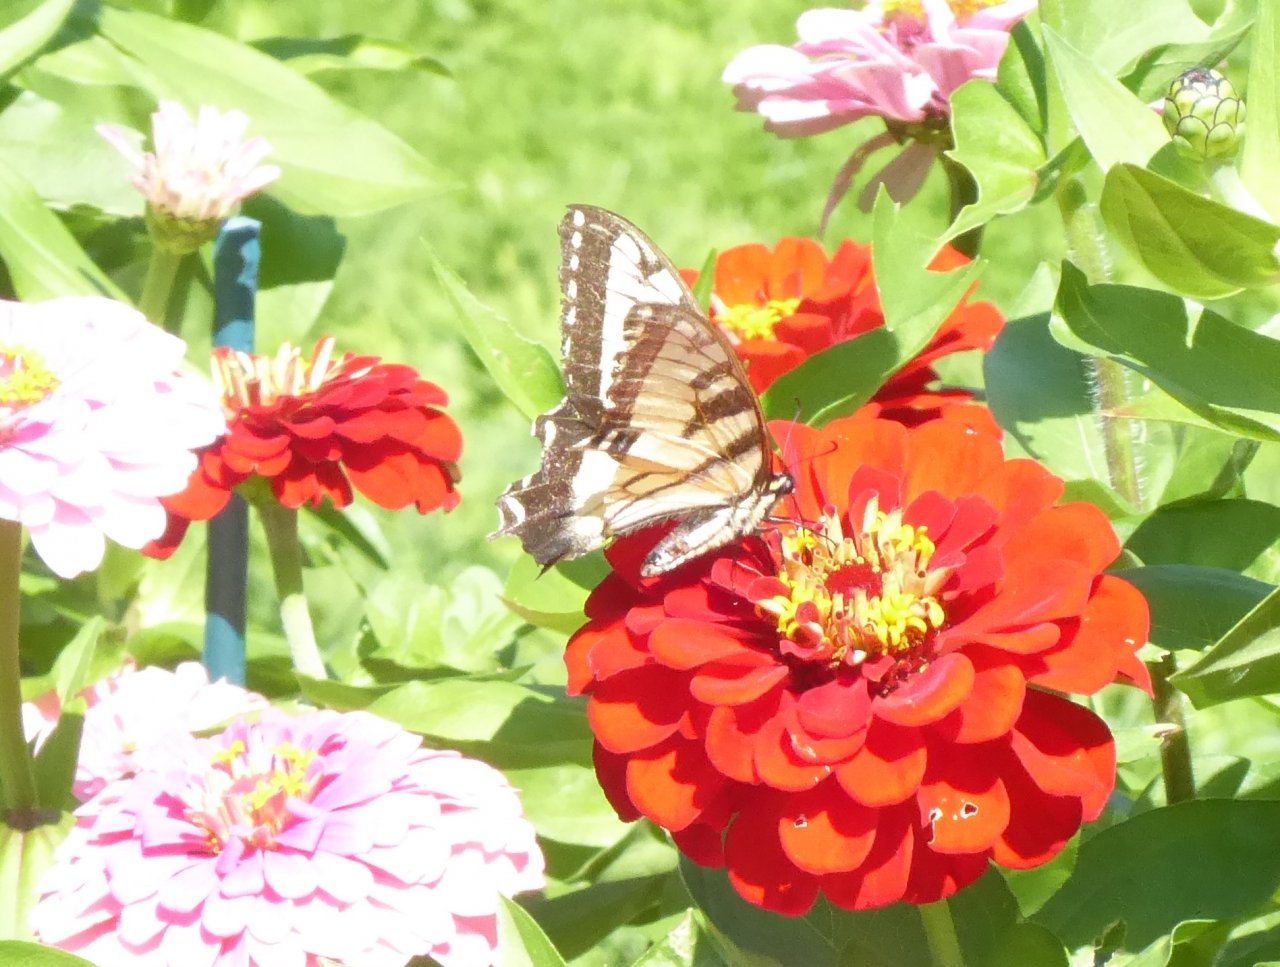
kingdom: Animalia
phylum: Arthropoda
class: Insecta
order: Lepidoptera
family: Papilionidae
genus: Pterourus
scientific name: Pterourus
